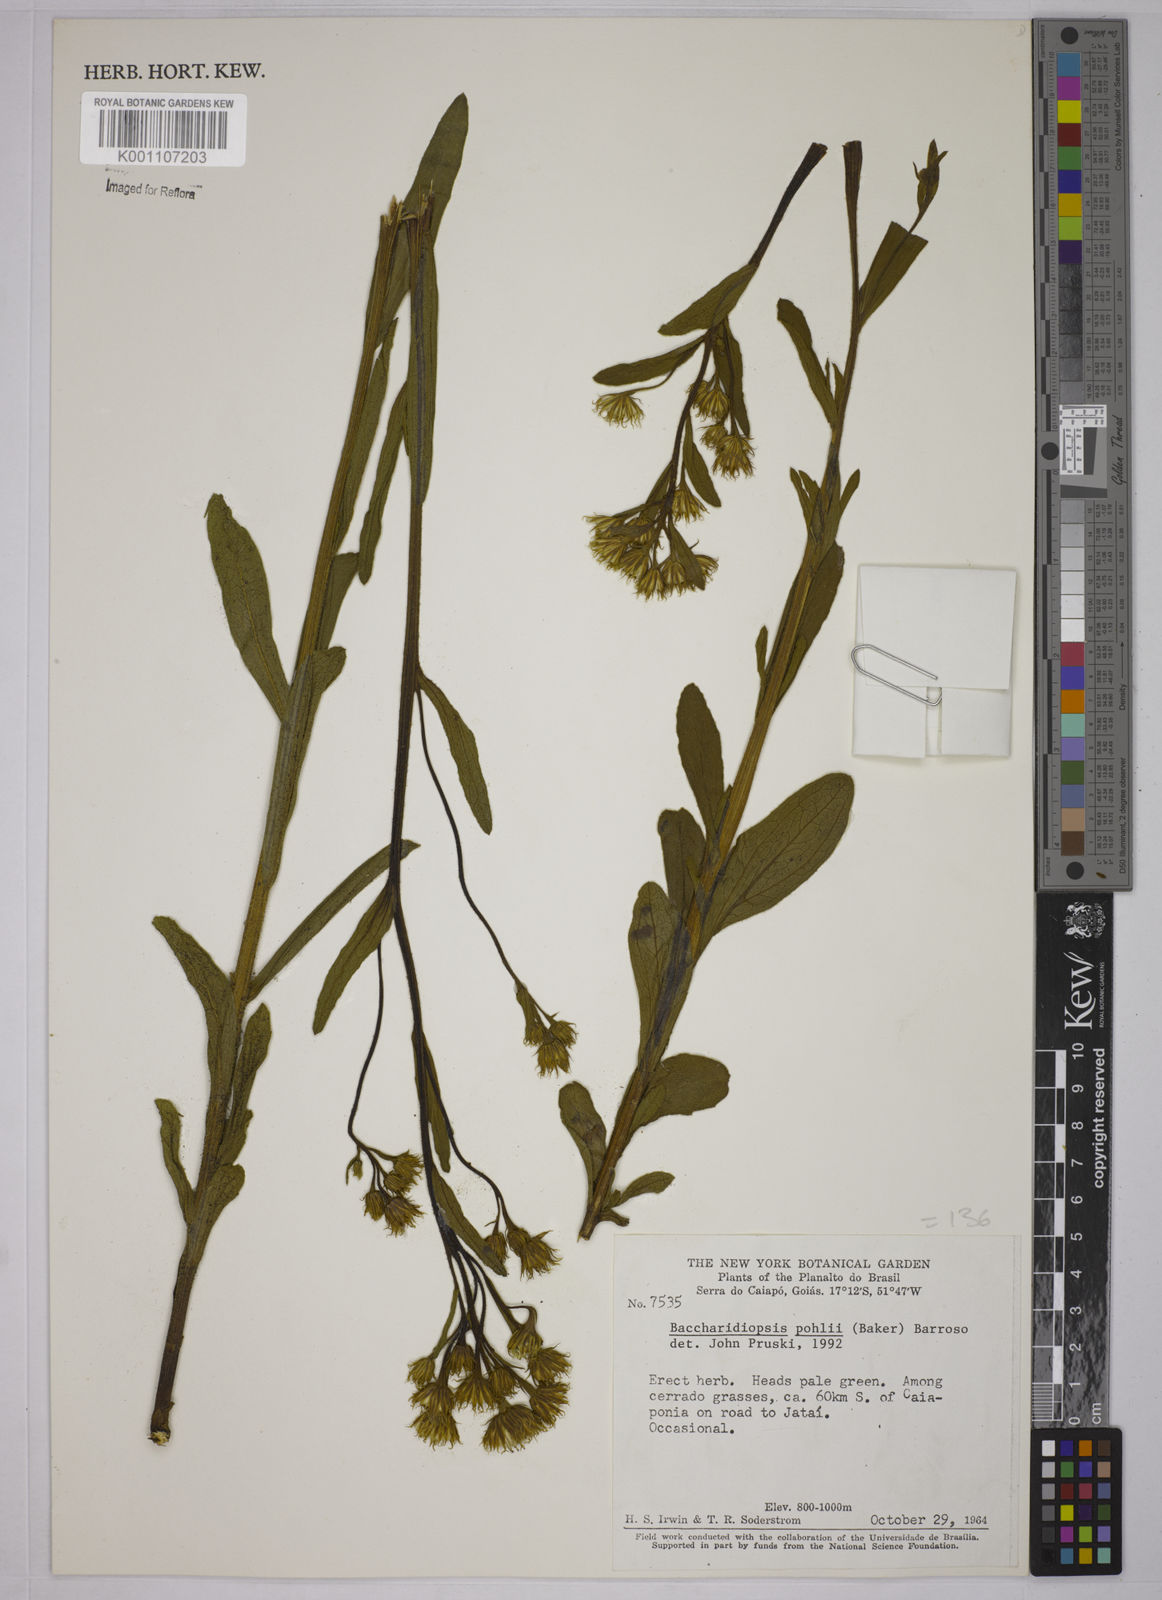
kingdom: Plantae
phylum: Tracheophyta
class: Magnoliopsida
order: Asterales
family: Asteraceae
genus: Baccharis
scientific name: Baccharis pohlii
